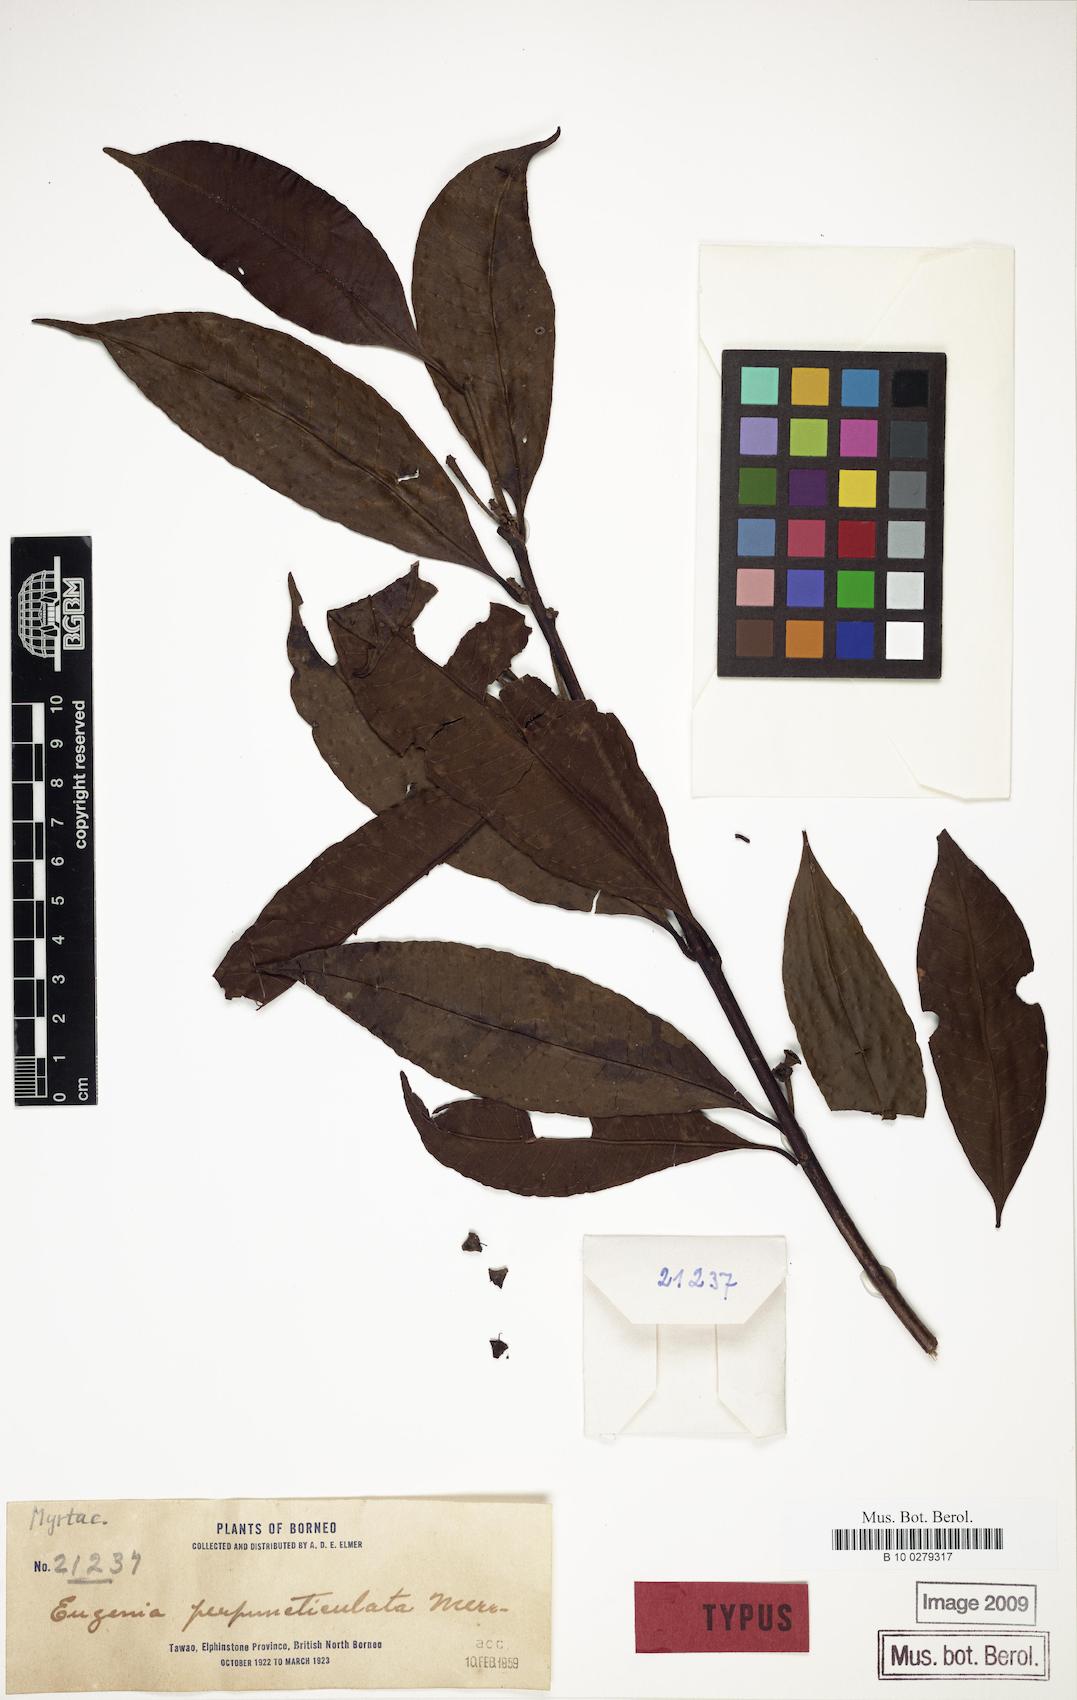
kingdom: Plantae
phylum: Tracheophyta
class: Magnoliopsida
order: Myrtales
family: Myrtaceae
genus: Syzygium
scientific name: Syzygium pustulatum
